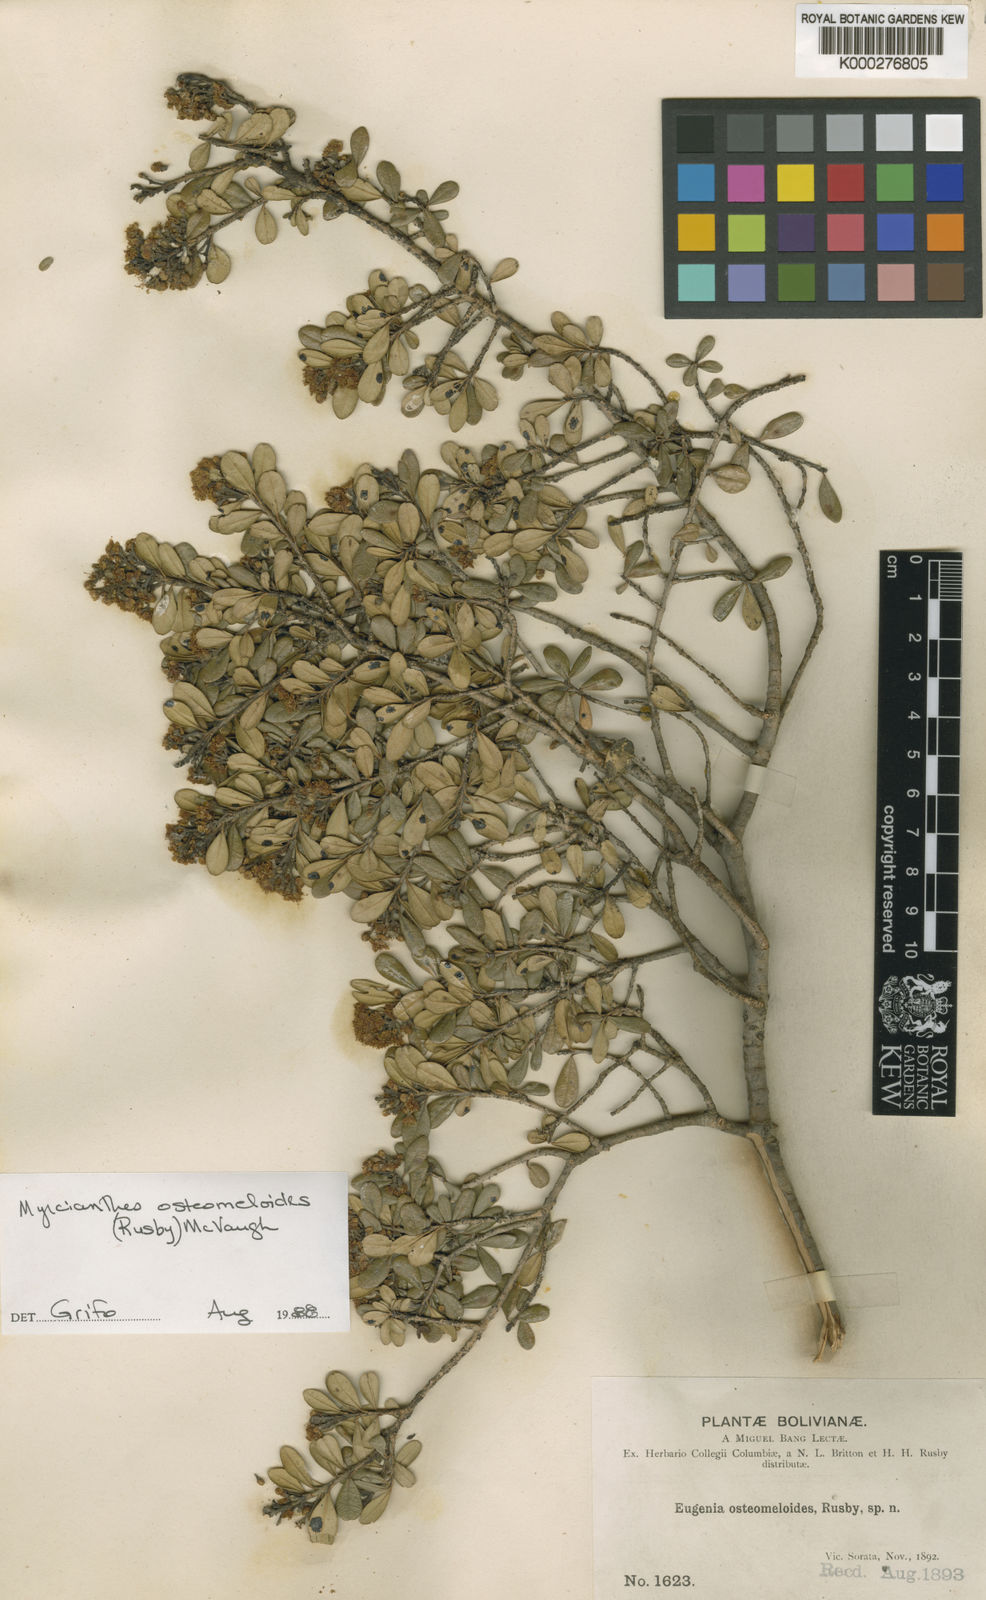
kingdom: Plantae
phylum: Tracheophyta
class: Magnoliopsida
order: Myrtales
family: Myrtaceae
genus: Myrcianthes
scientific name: Myrcianthes osteomeloides
